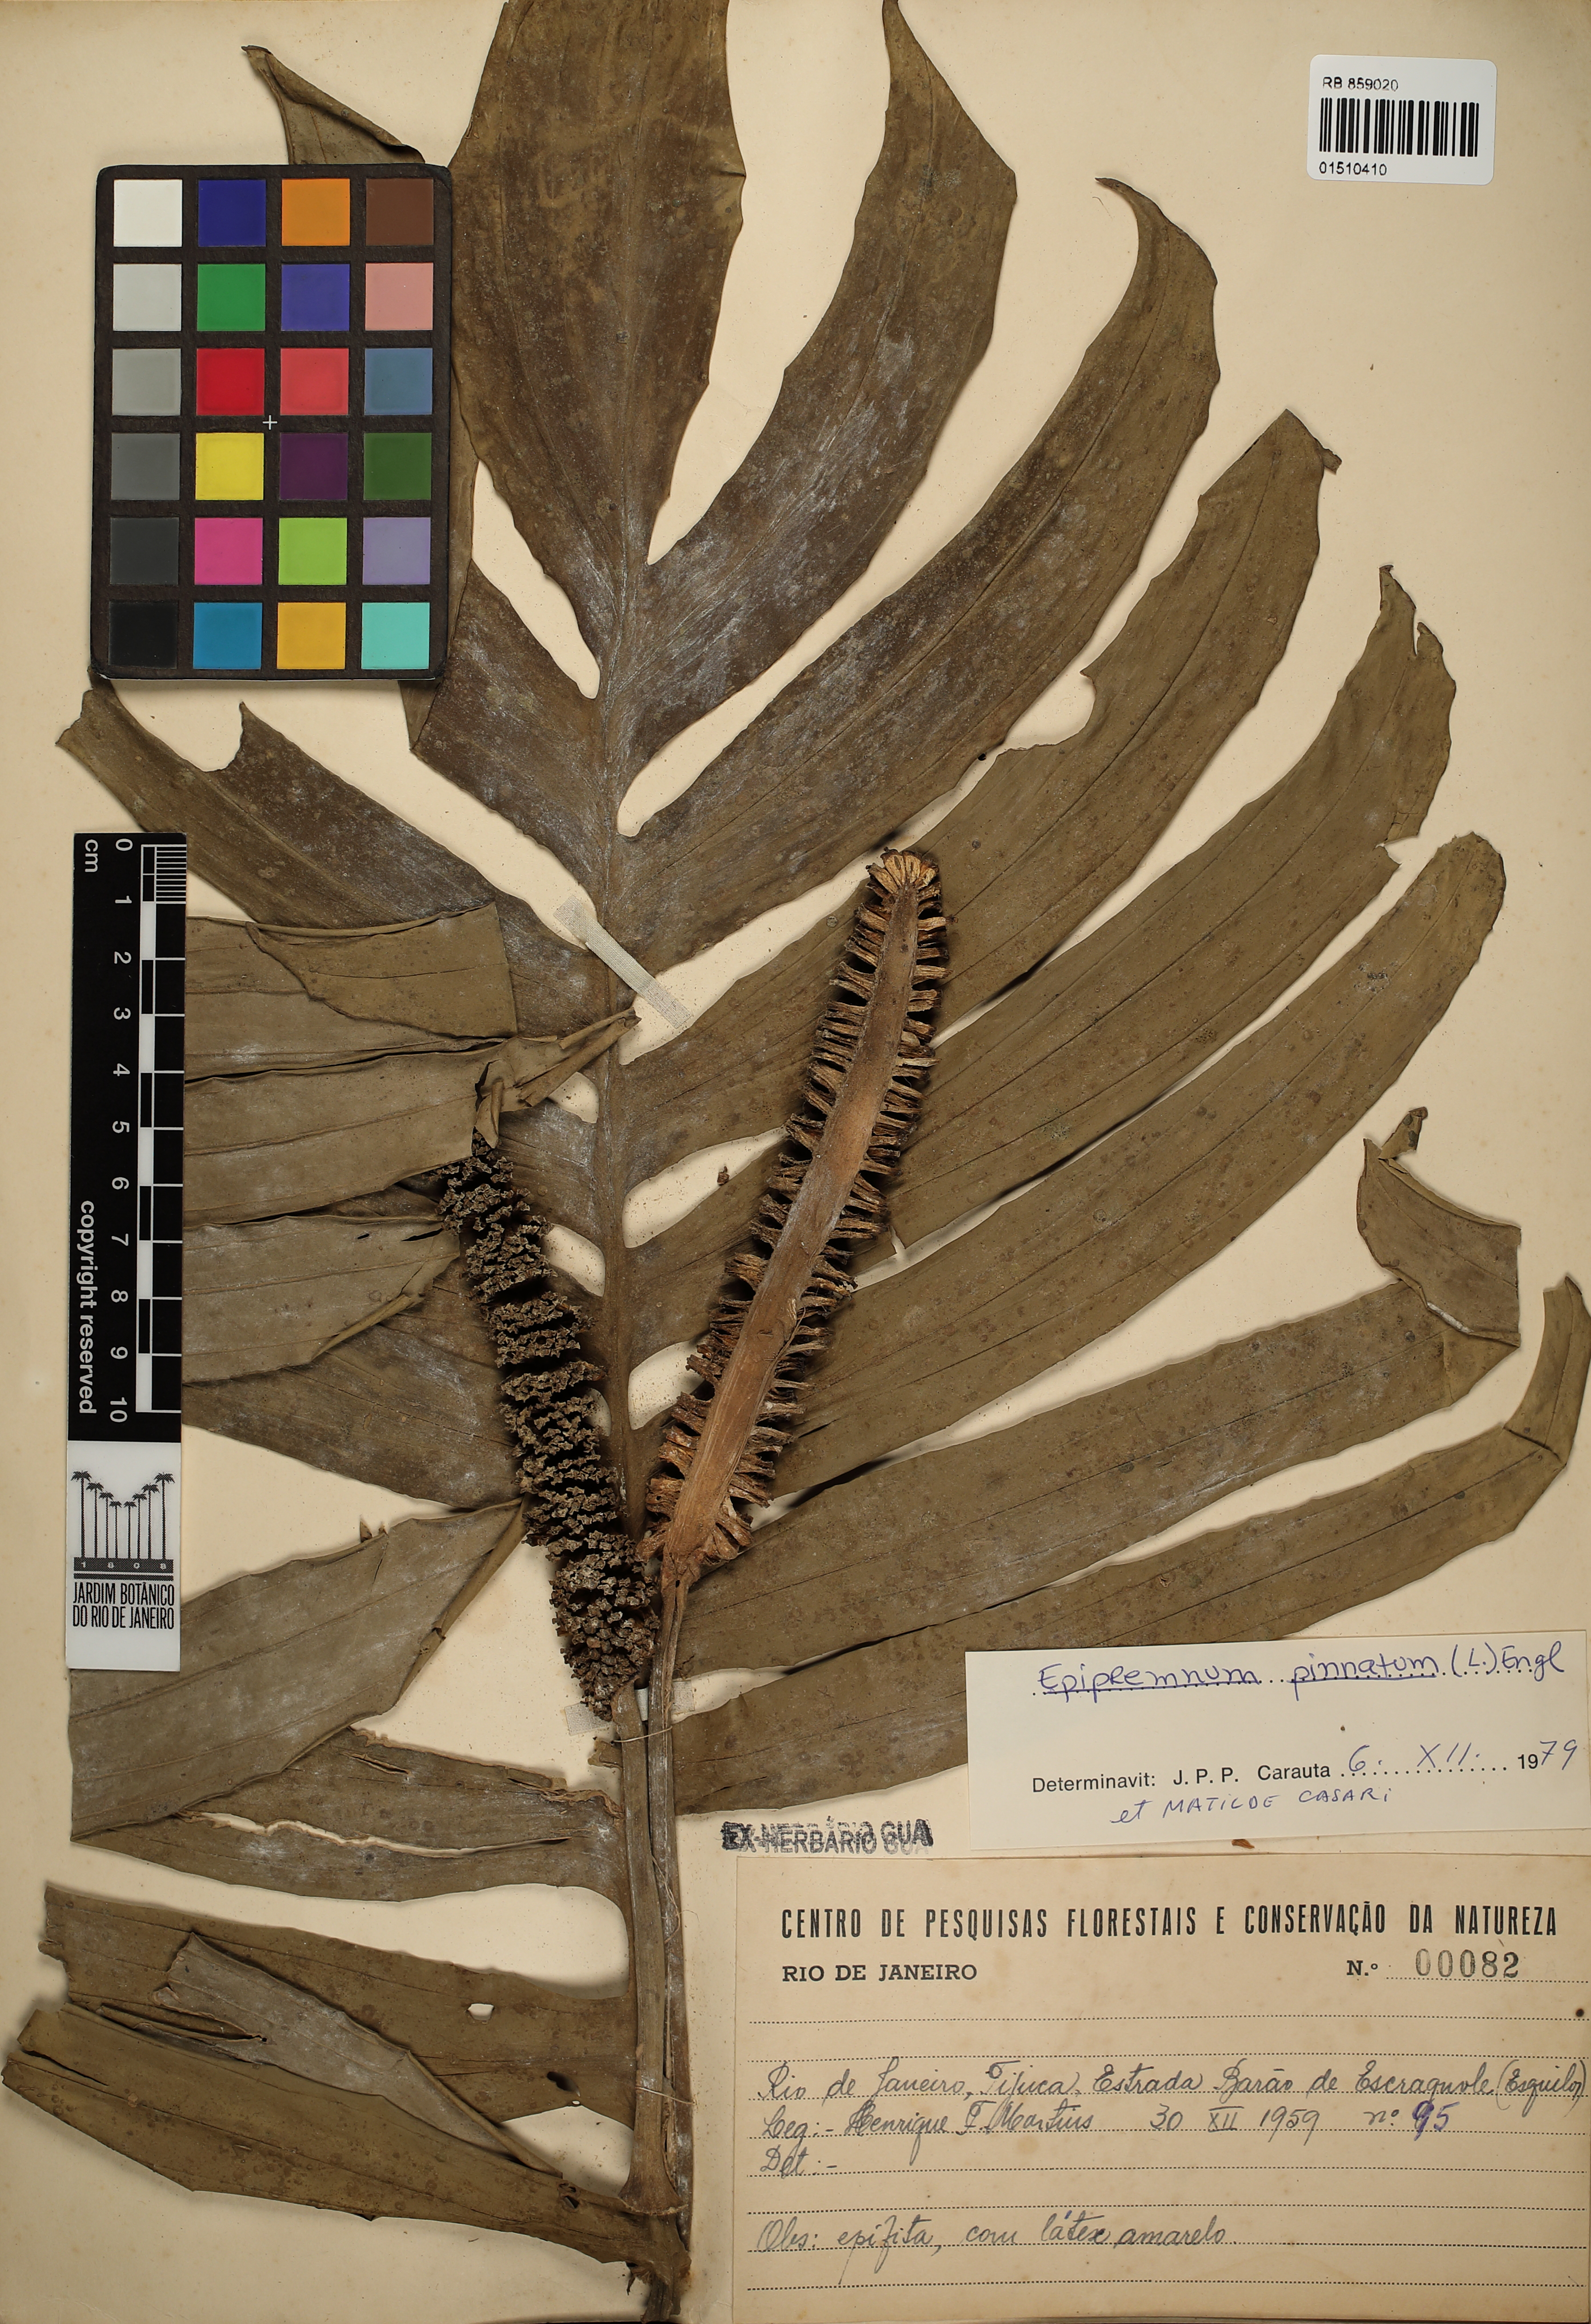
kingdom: Plantae
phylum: Tracheophyta
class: Liliopsida
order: Alismatales
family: Araceae
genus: Epipremnum
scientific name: Epipremnum pinnatum
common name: Centipede tongavine
